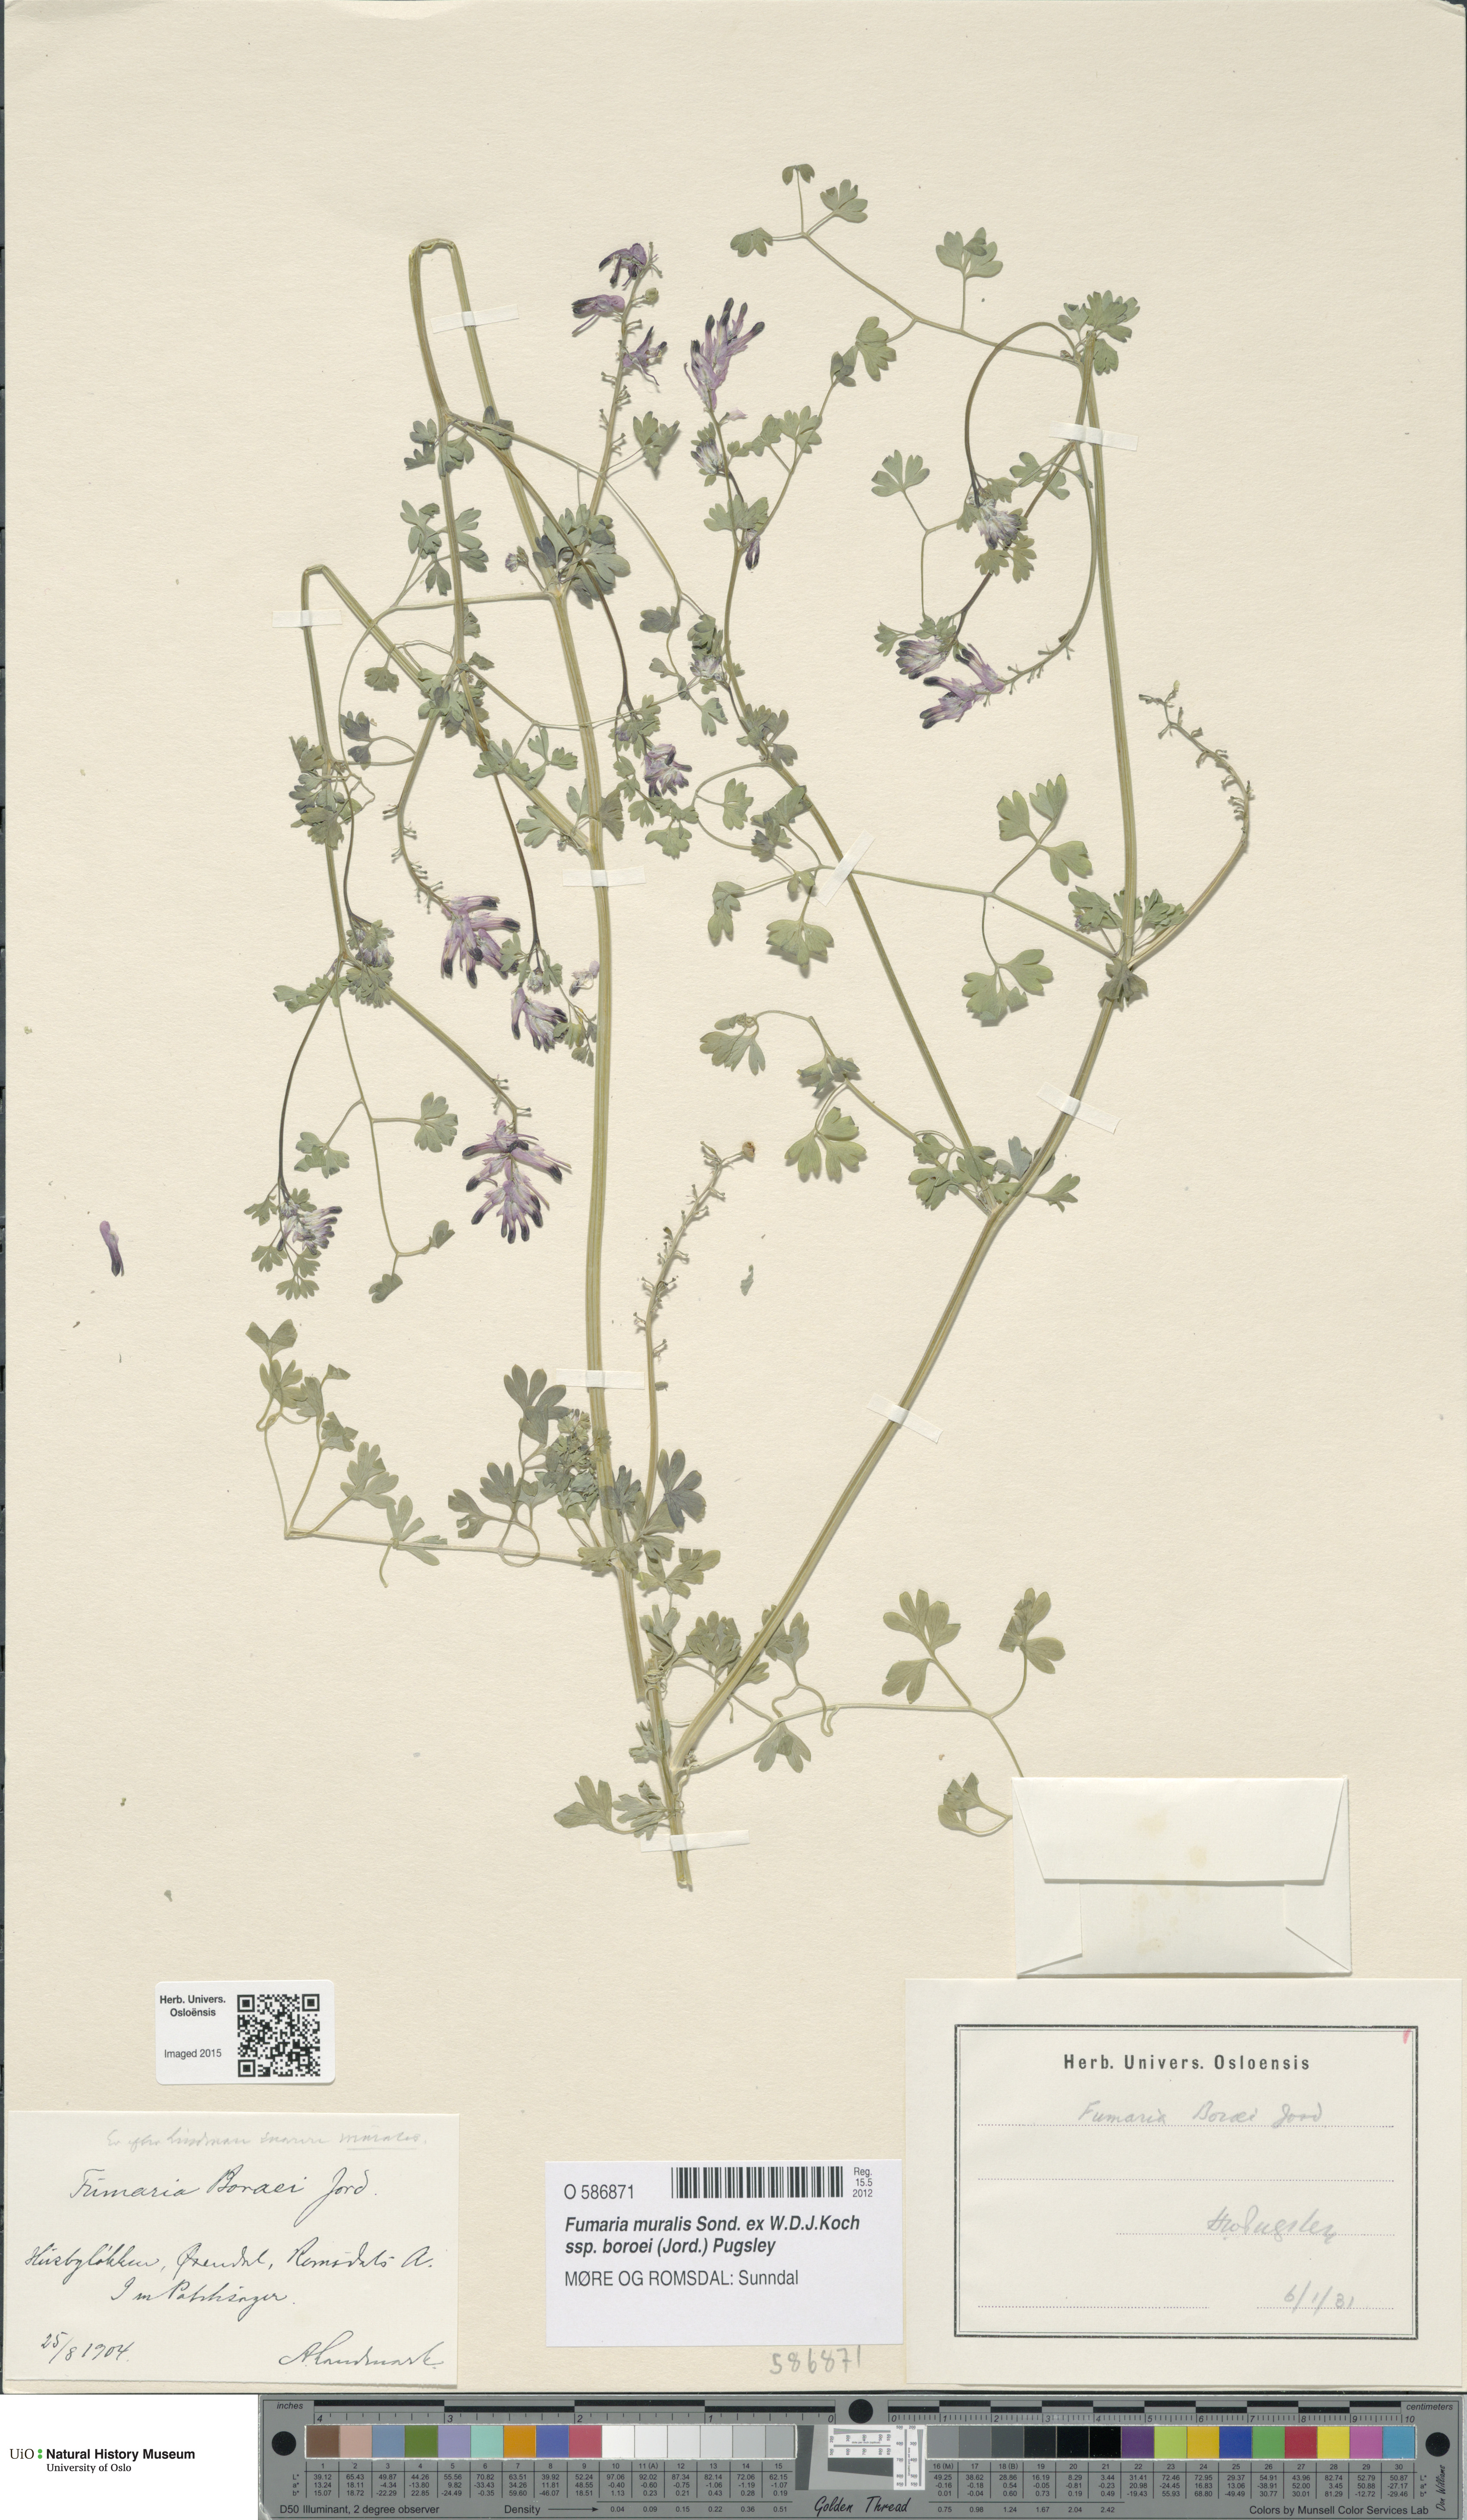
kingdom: Plantae
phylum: Tracheophyta
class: Magnoliopsida
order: Ranunculales
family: Papaveraceae
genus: Fumaria
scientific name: Fumaria muralis
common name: Common ramping-fumitory
